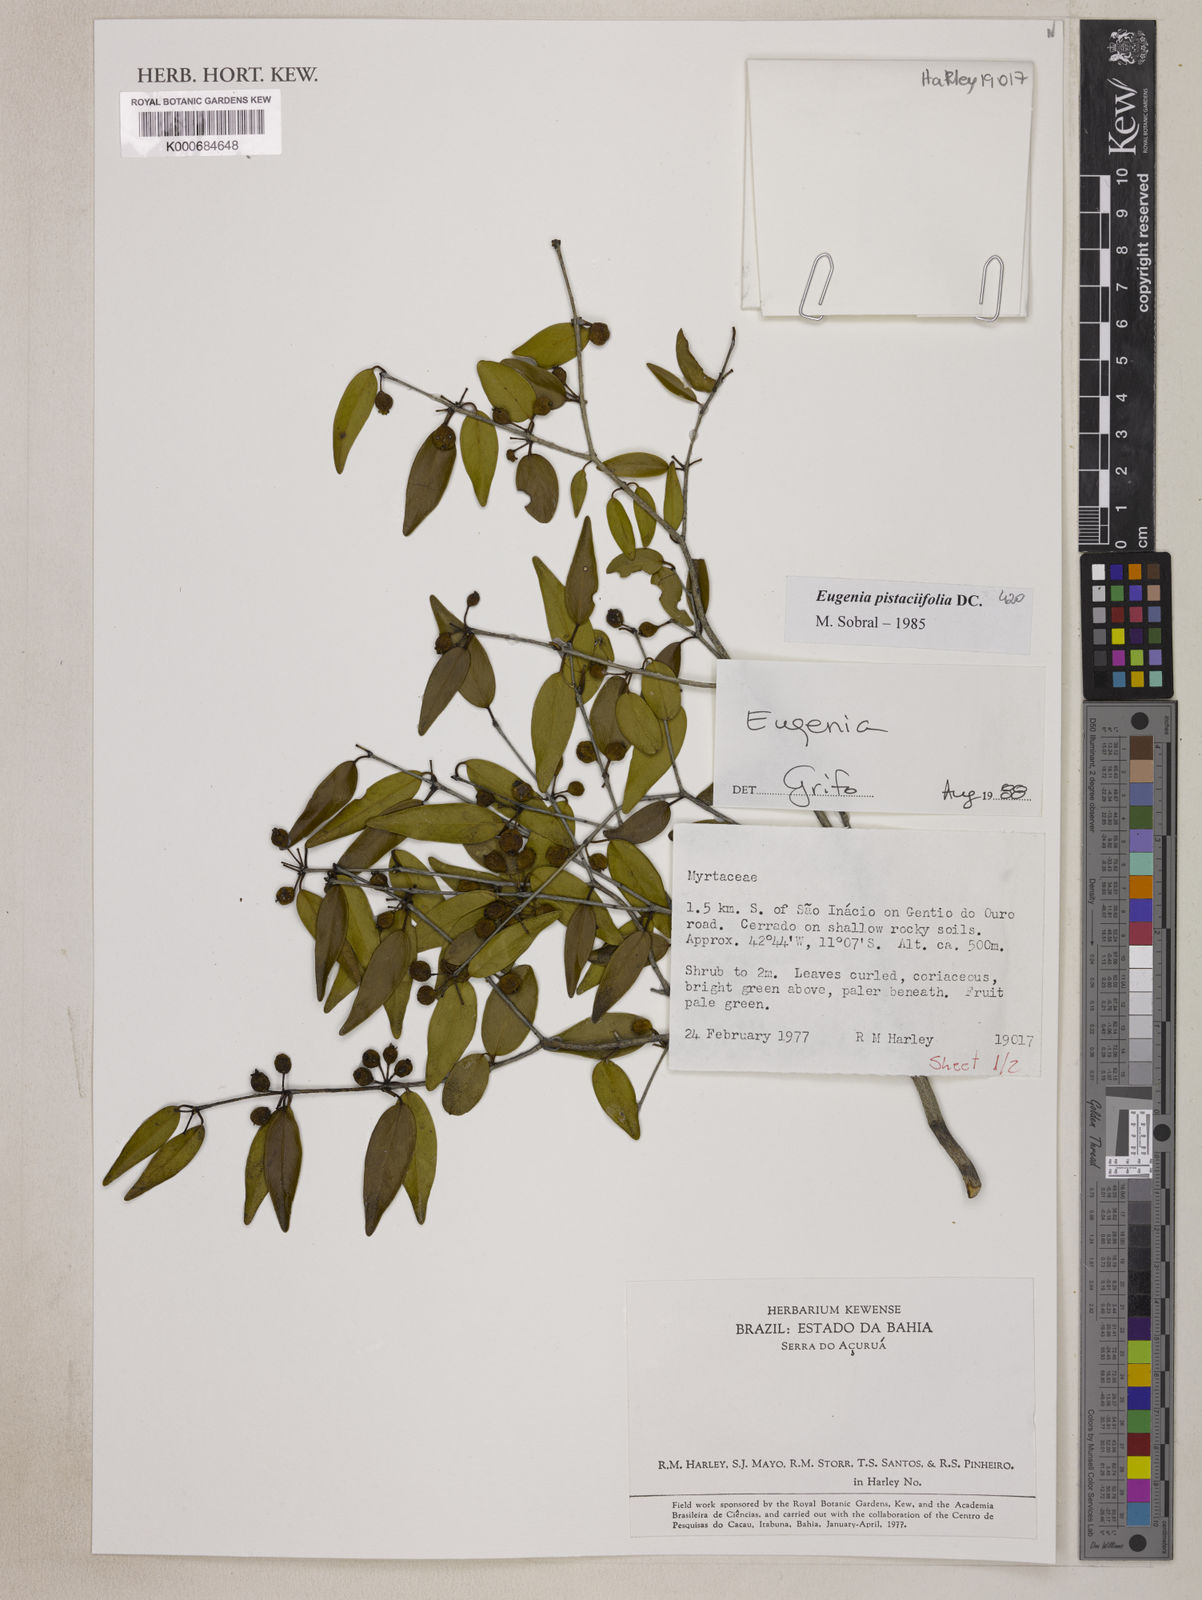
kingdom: Plantae
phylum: Tracheophyta
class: Magnoliopsida
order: Myrtales
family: Myrtaceae
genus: Eugenia
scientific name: Eugenia pistaciifolia
